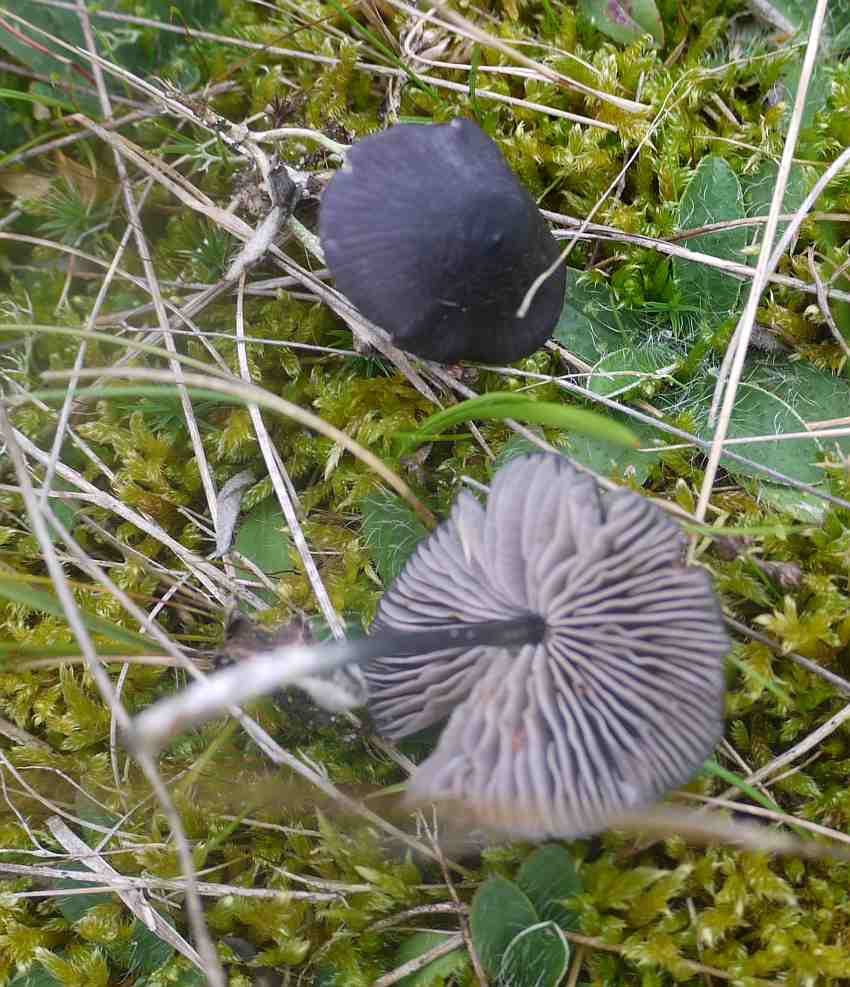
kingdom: Fungi
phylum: Basidiomycota
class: Agaricomycetes
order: Agaricales
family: Entolomataceae
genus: Entoloma
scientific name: Entoloma chalybeum
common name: blåbladet rødblad
